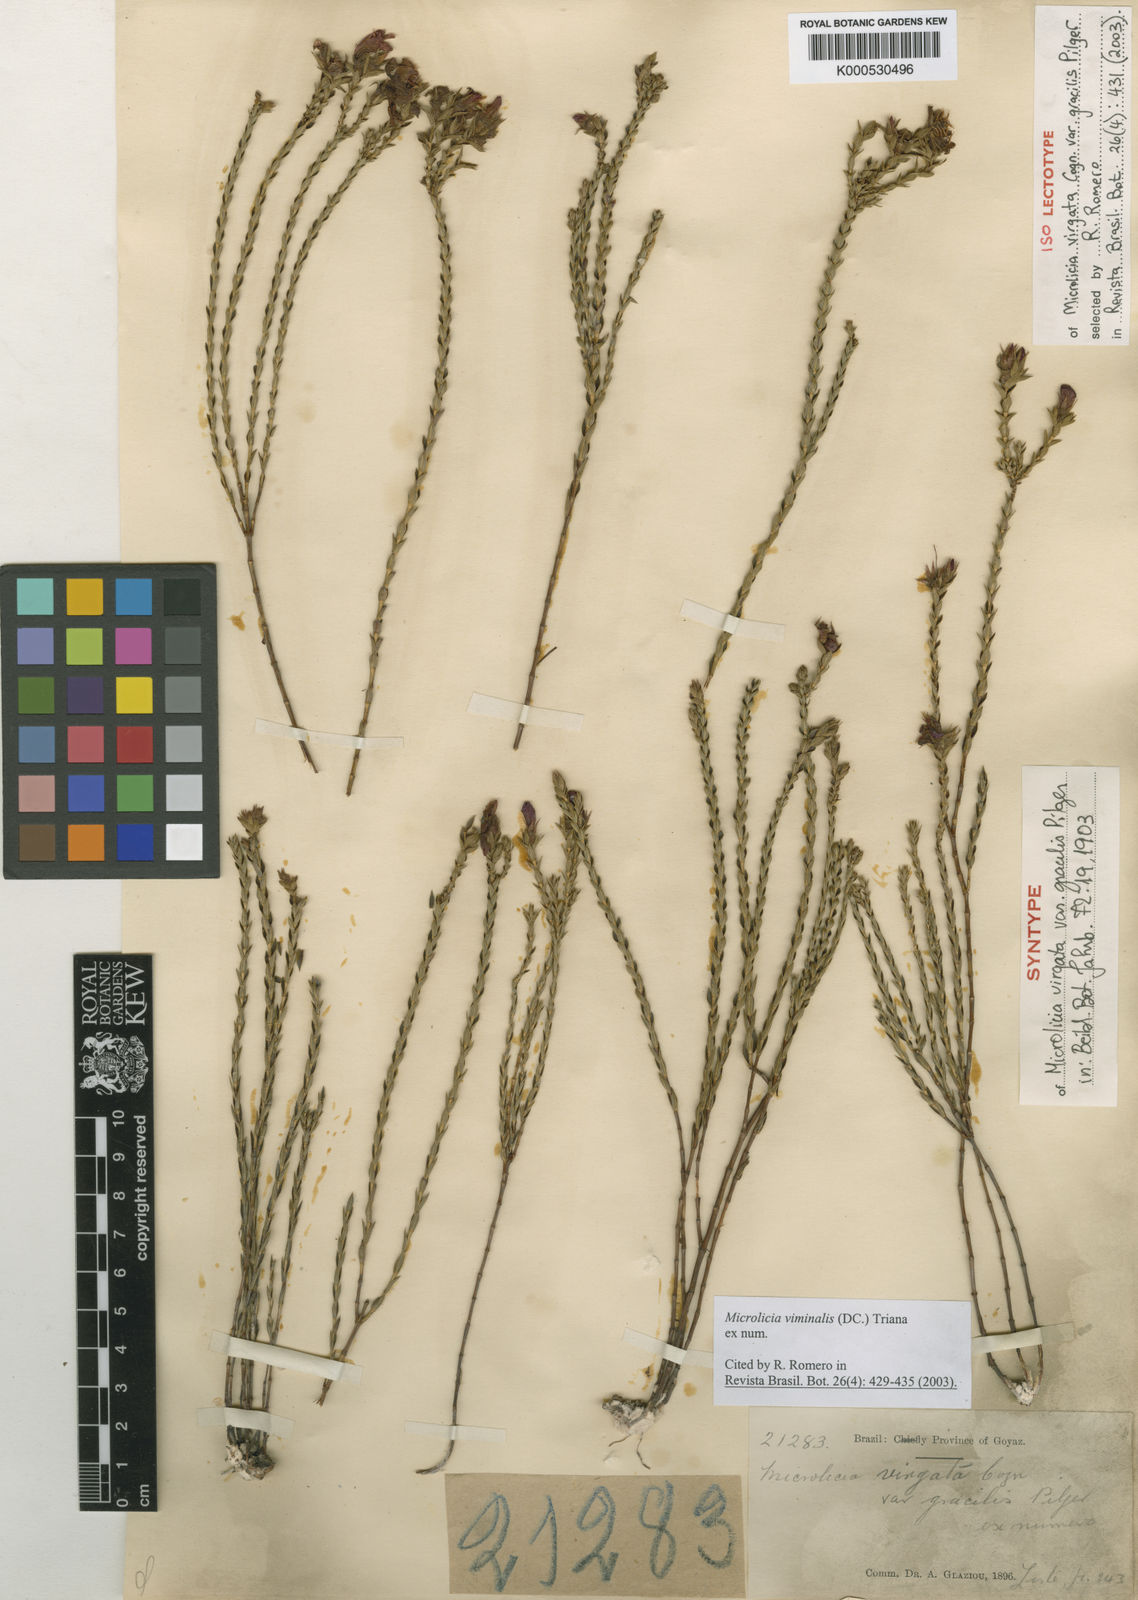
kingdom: Plantae
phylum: Tracheophyta
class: Magnoliopsida
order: Myrtales
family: Melastomataceae
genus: Microlicia
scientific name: Microlicia viminalis
